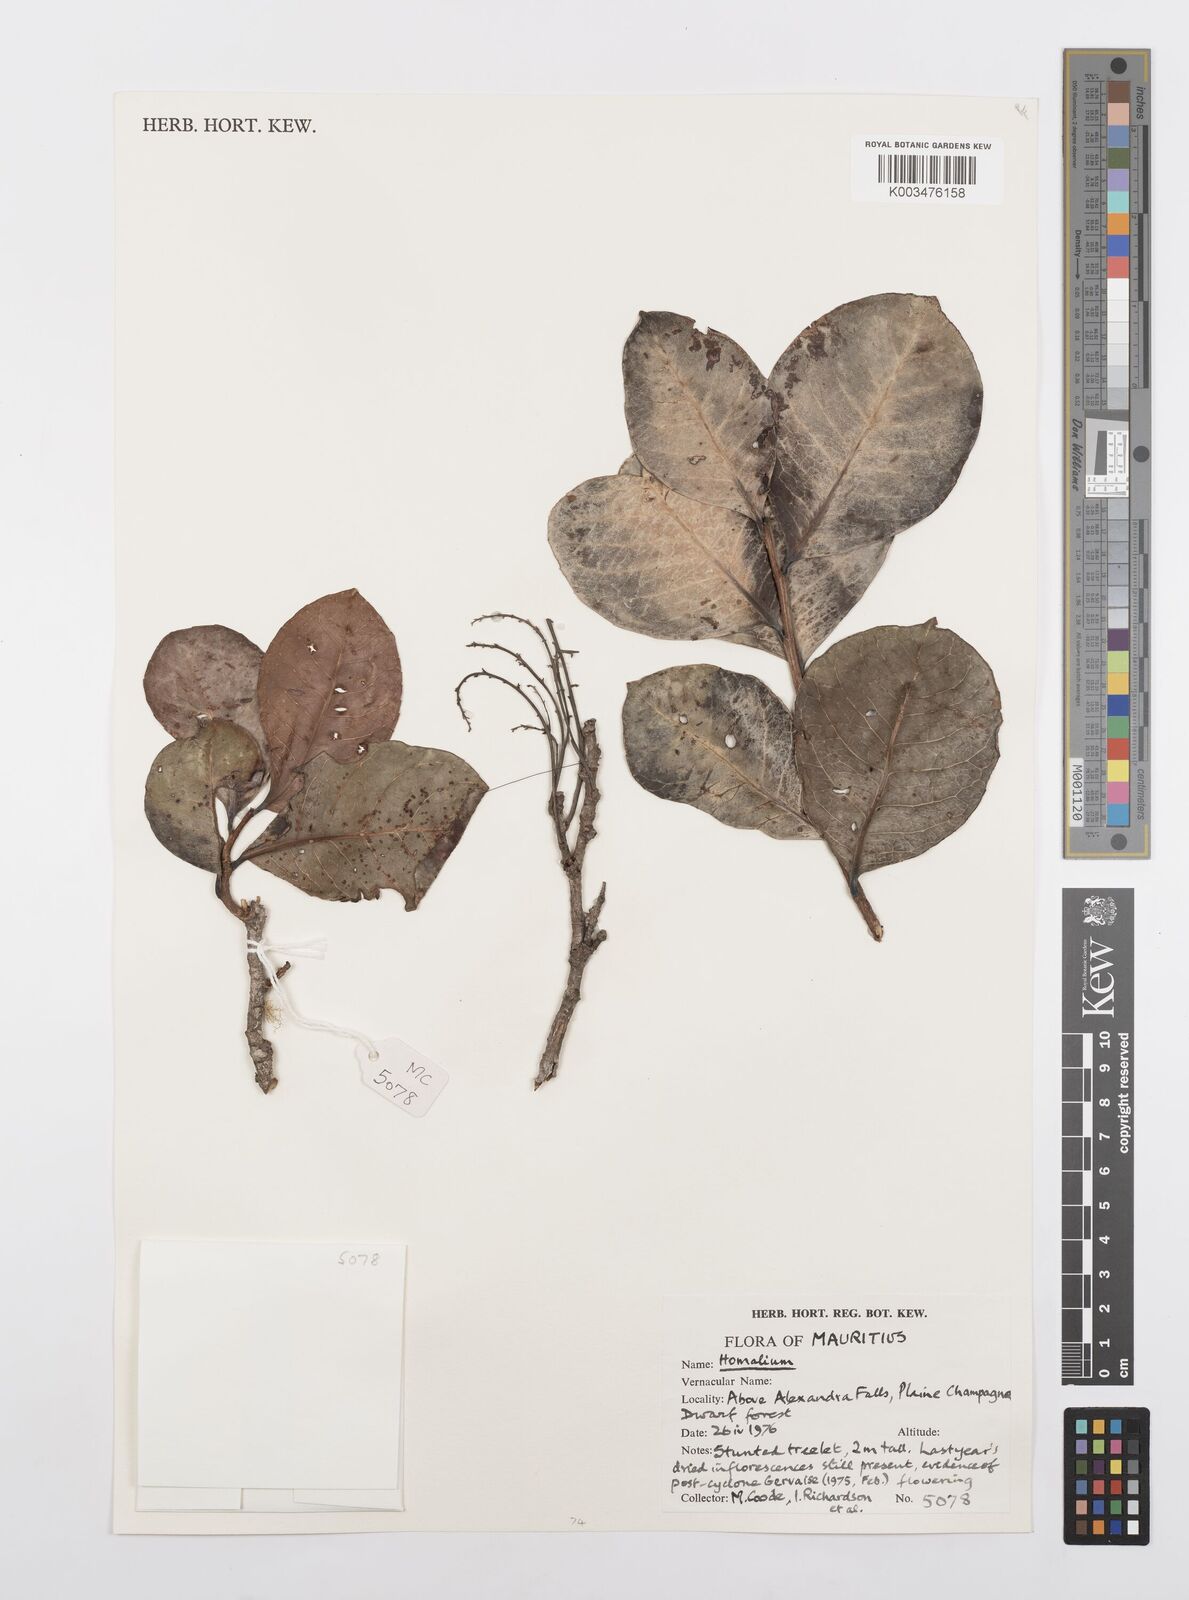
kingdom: Plantae
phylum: Tracheophyta
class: Magnoliopsida
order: Malpighiales
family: Salicaceae
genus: Homalium
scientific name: Homalium
